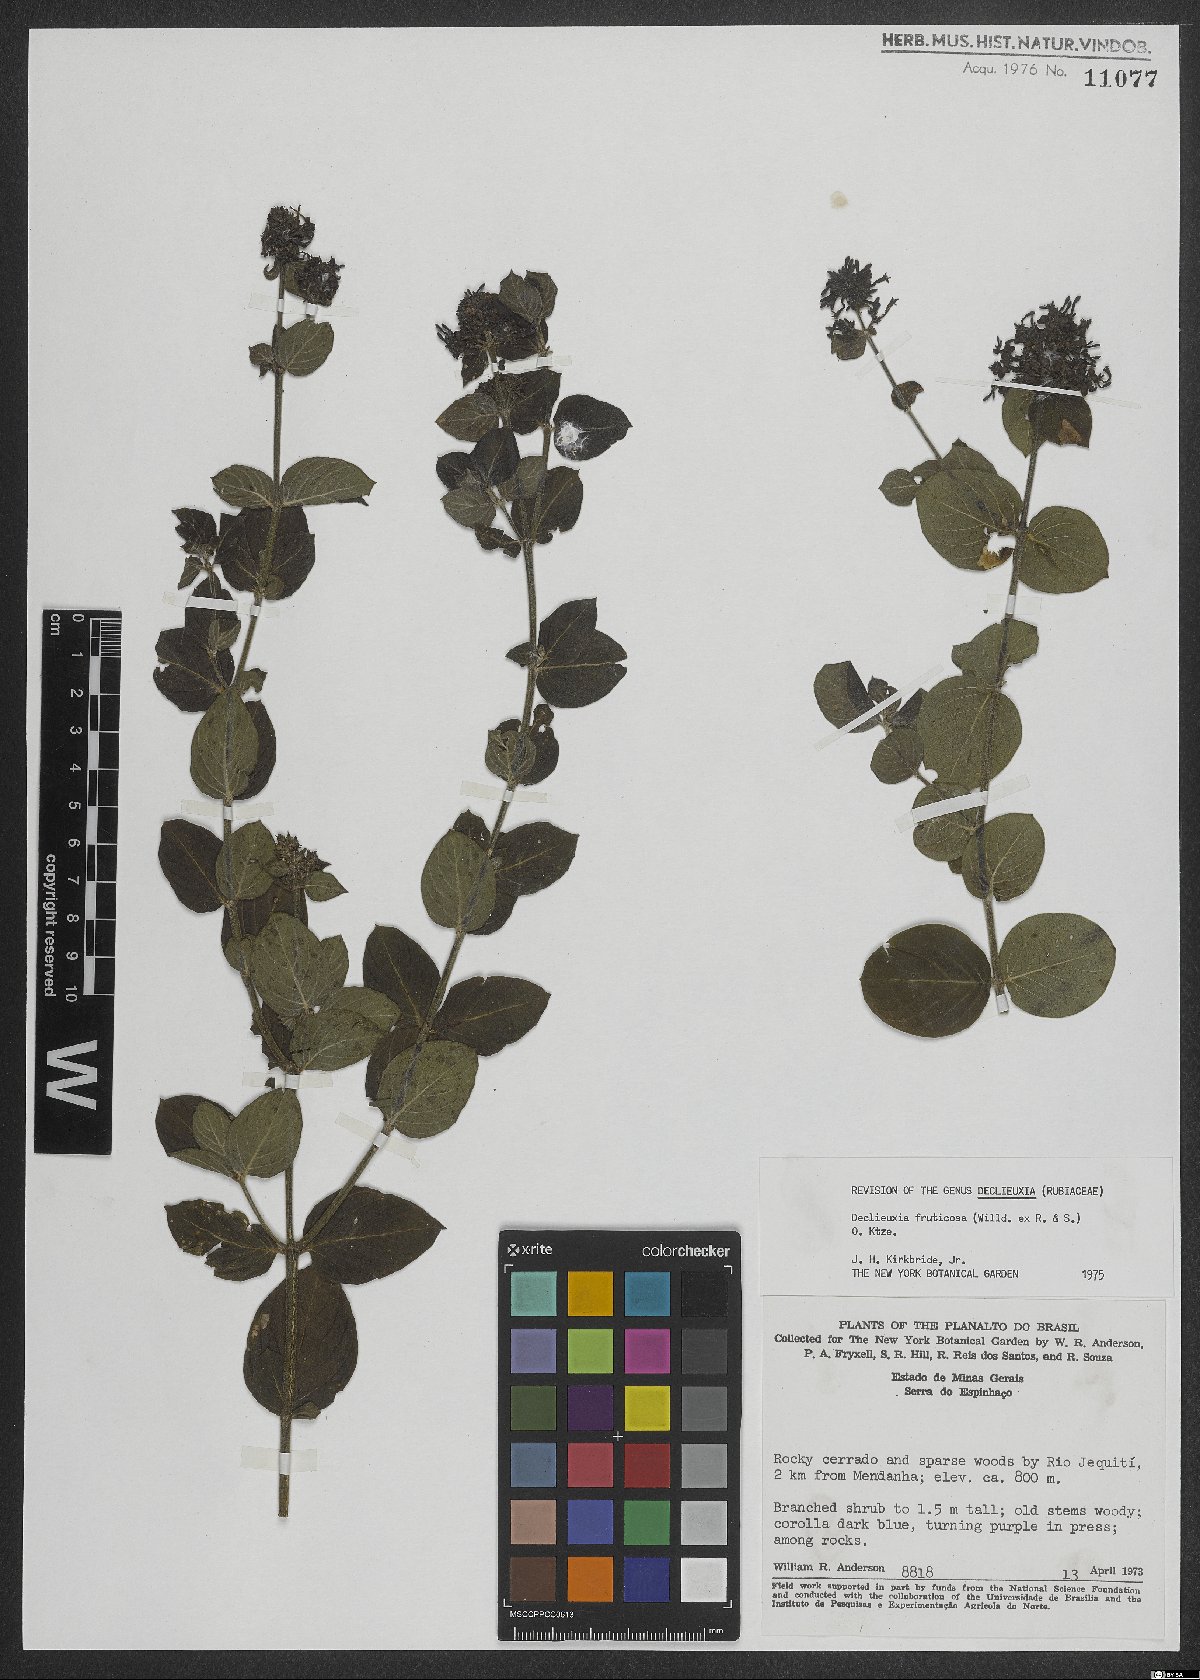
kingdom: Plantae
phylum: Tracheophyta
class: Magnoliopsida
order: Gentianales
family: Rubiaceae
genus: Declieuxia
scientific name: Declieuxia fruticosa
